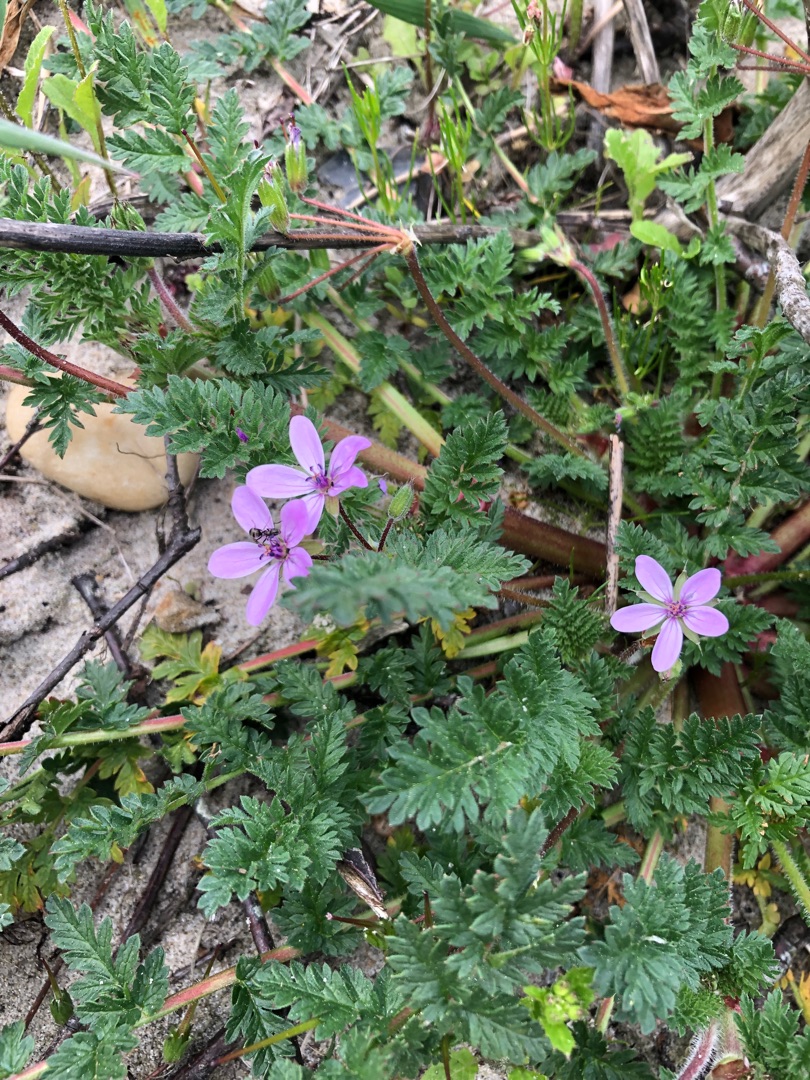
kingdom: Plantae
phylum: Tracheophyta
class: Magnoliopsida
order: Geraniales
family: Geraniaceae
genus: Erodium
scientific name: Erodium cicutarium
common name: Hejrenæb
